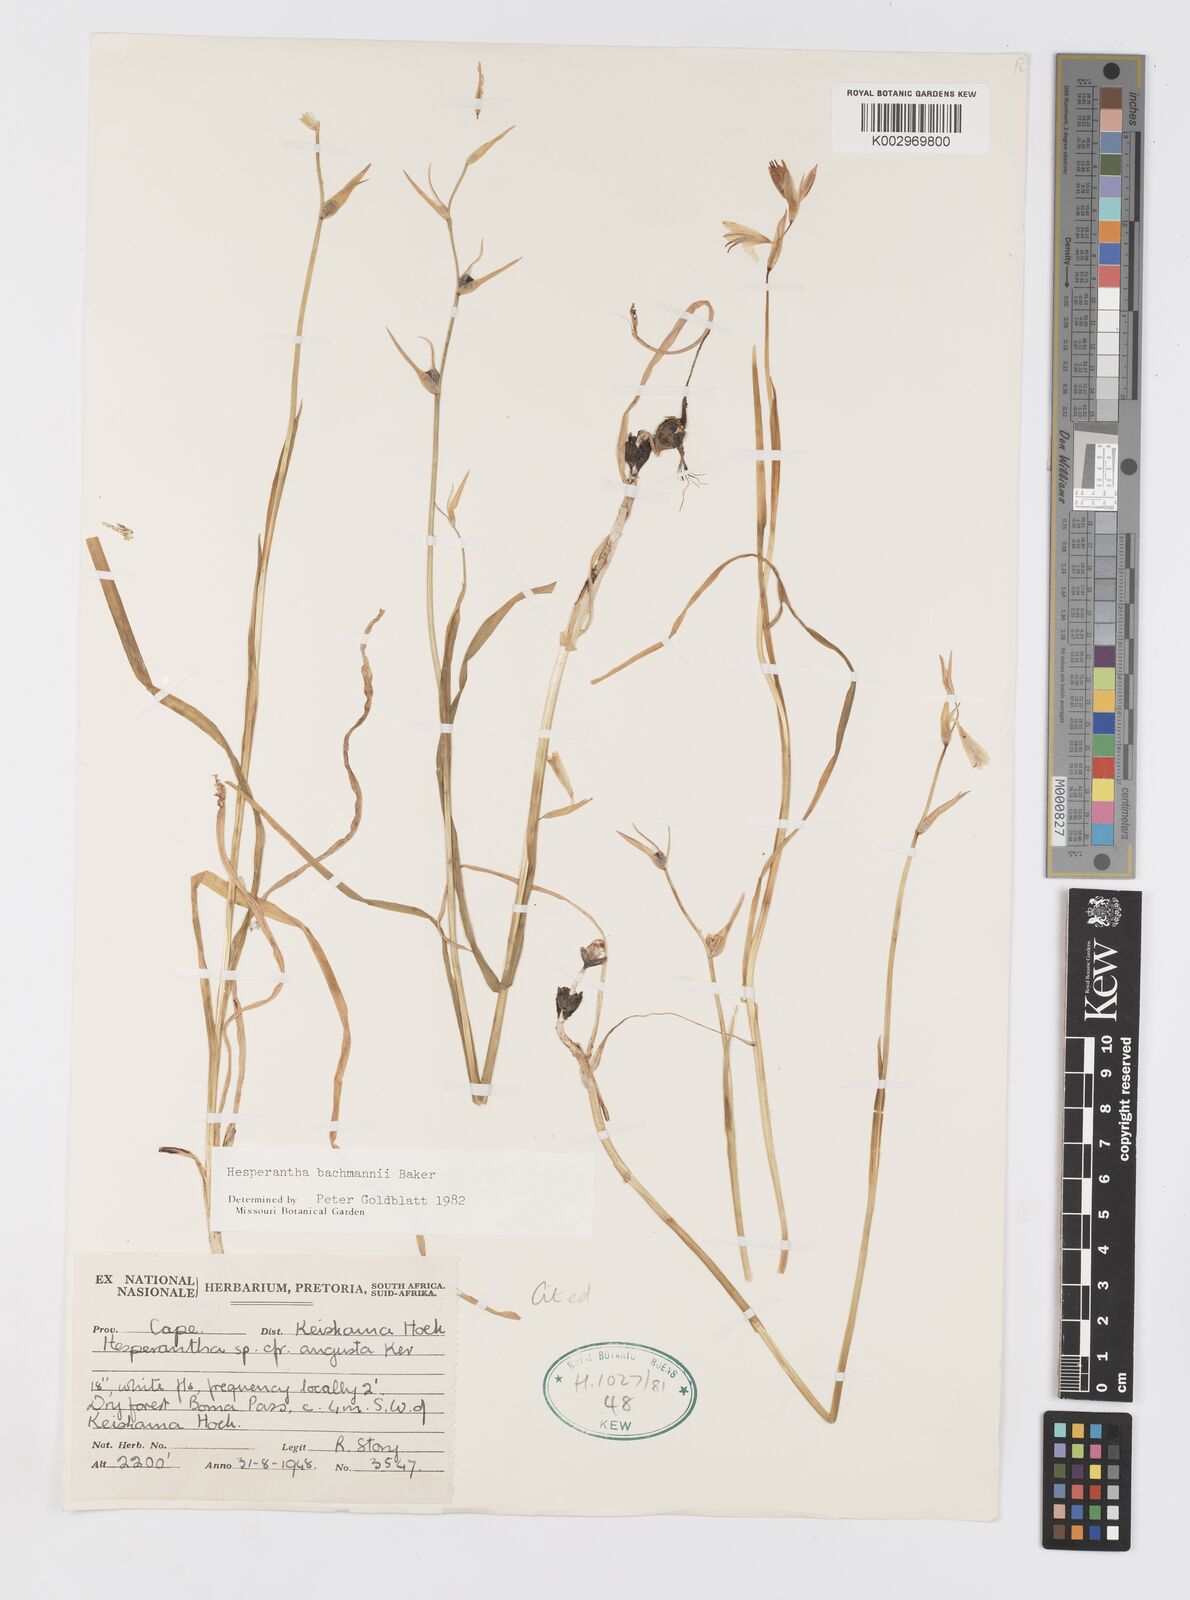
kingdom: Plantae
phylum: Tracheophyta
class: Liliopsida
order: Asparagales
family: Iridaceae
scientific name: Iridaceae
